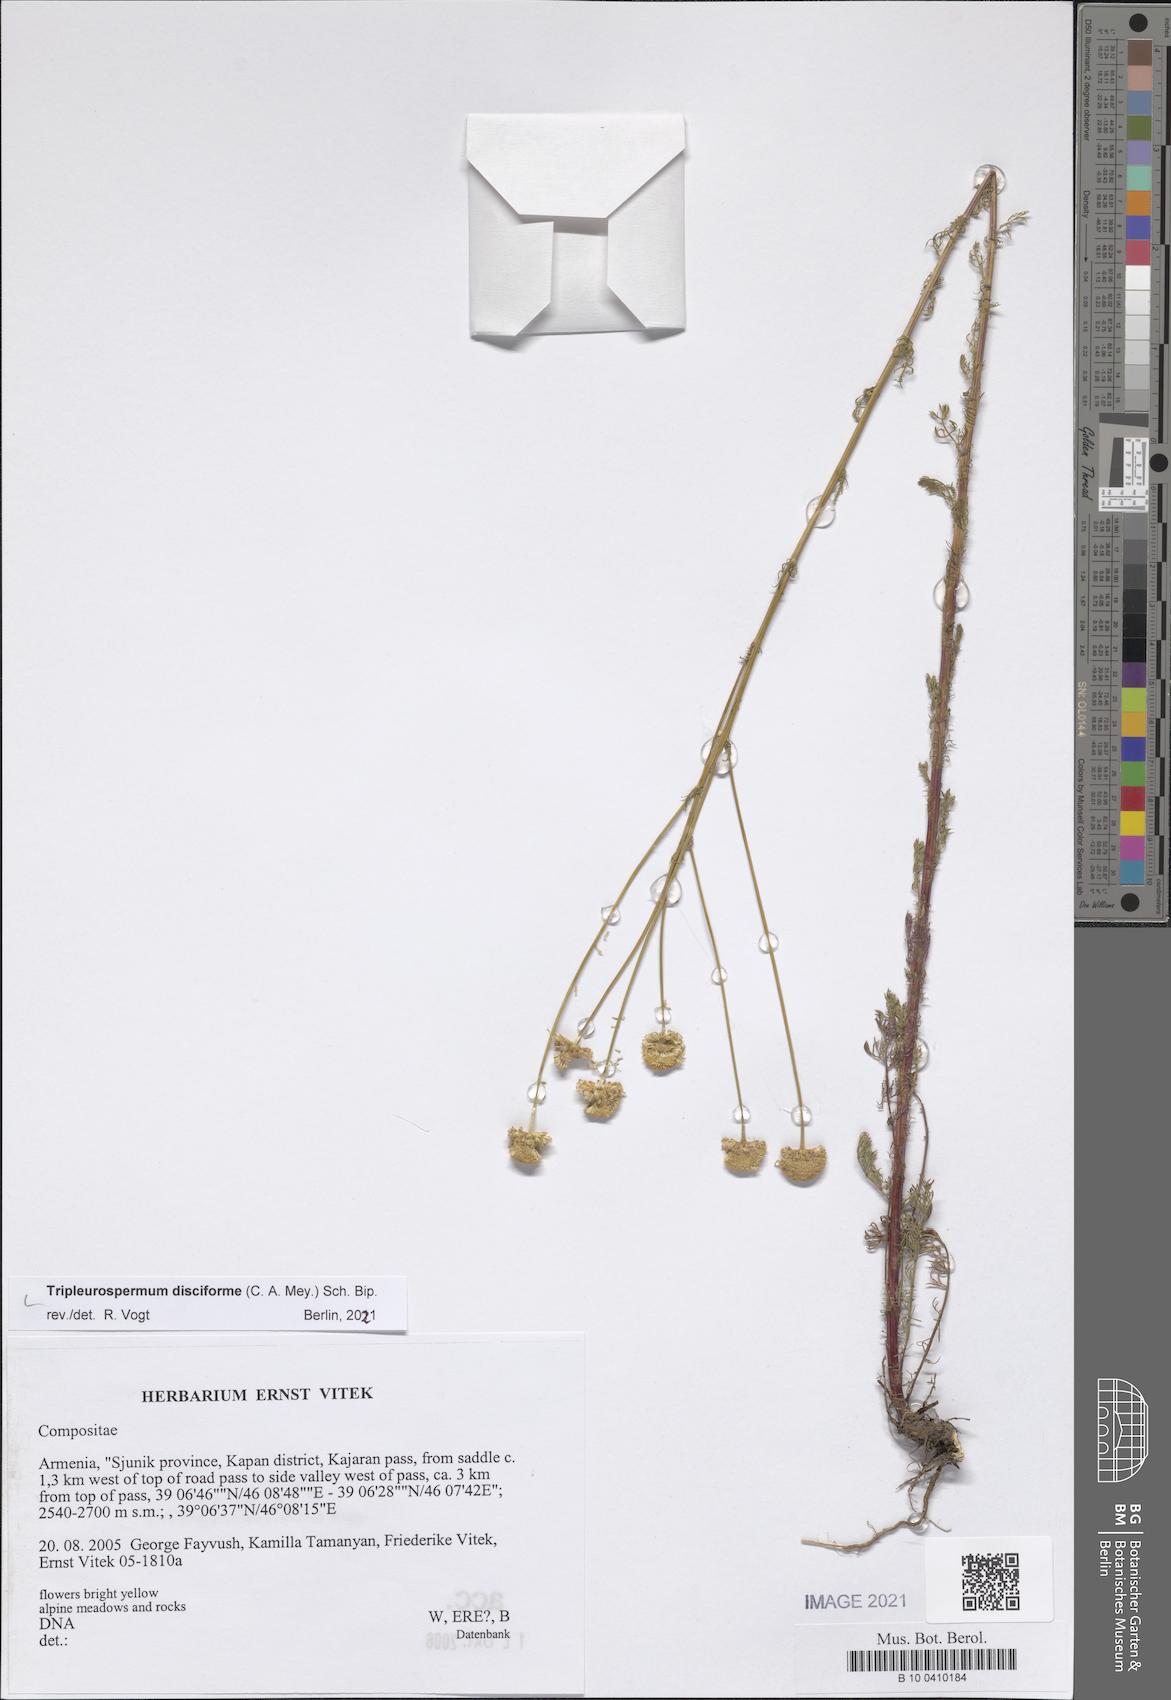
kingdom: Plantae
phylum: Tracheophyta
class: Magnoliopsida
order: Asterales
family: Asteraceae
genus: Tripleurospermum
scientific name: Tripleurospermum disciforme
